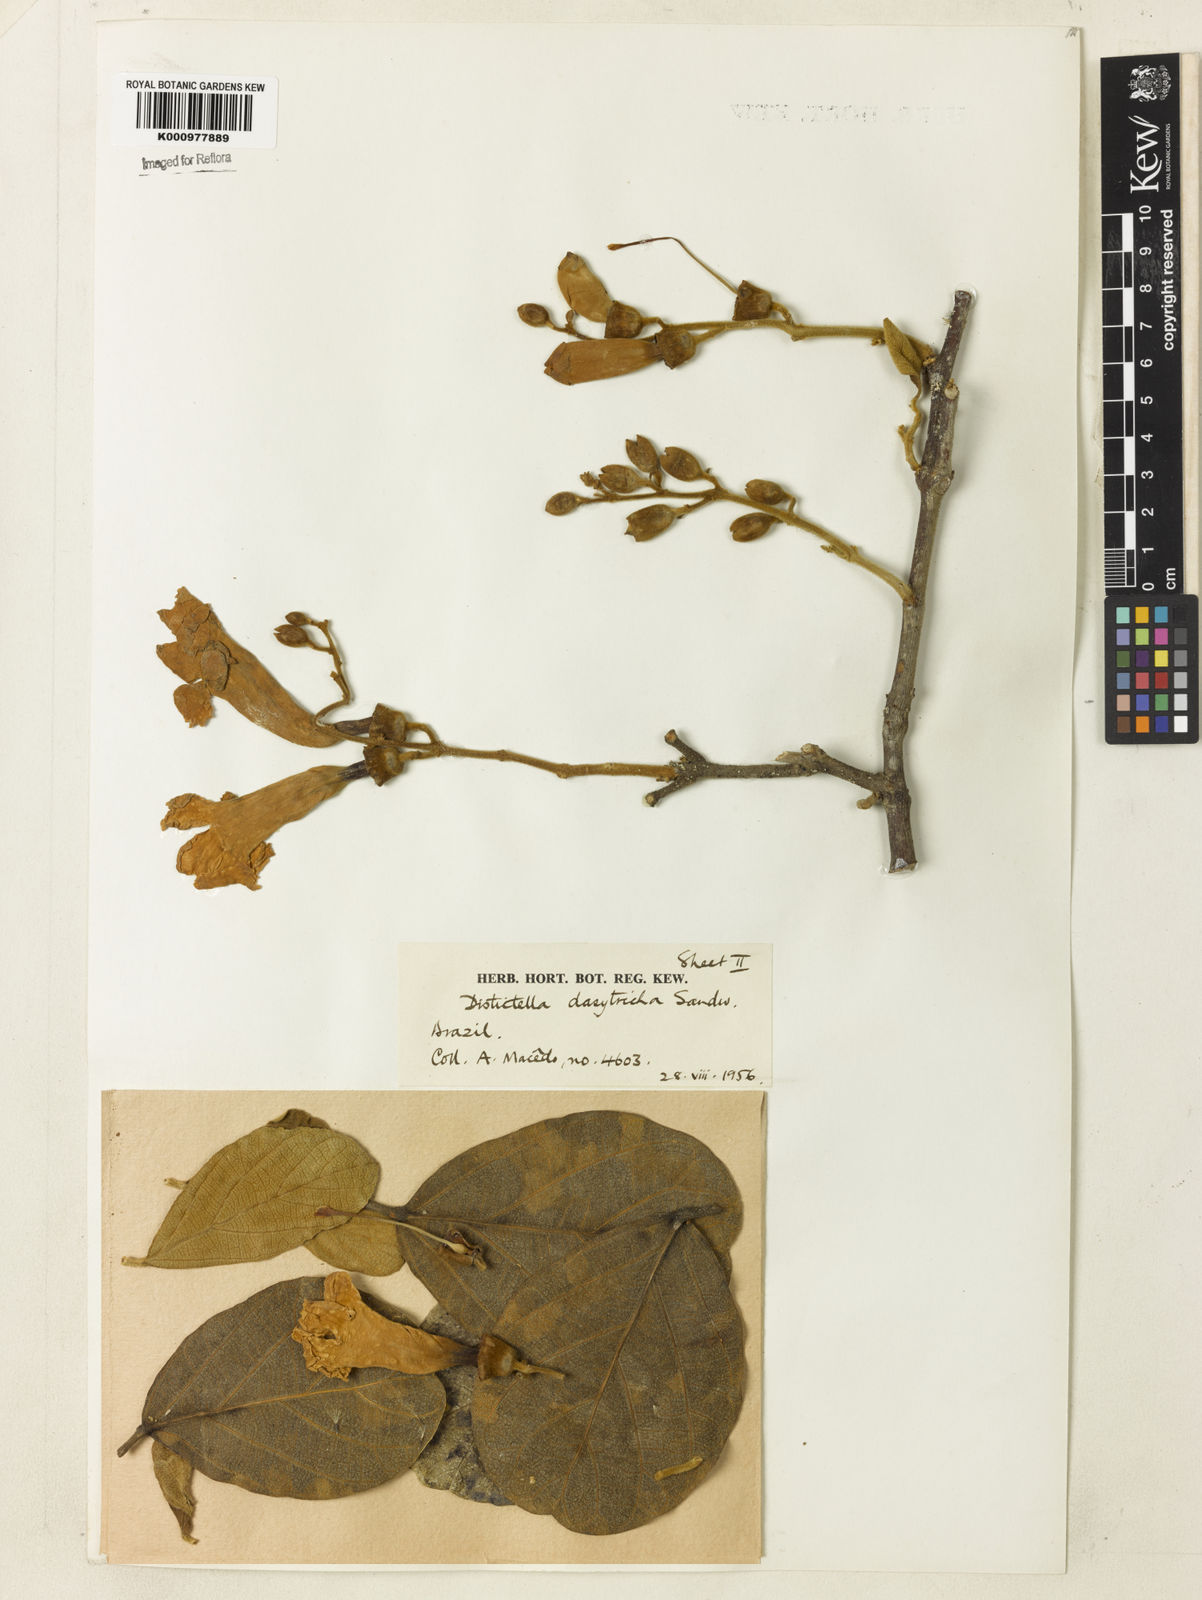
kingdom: Plantae
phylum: Tracheophyta
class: Magnoliopsida
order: Lamiales
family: Bignoniaceae
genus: Amphilophium
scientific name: Amphilophium dasytrichum
